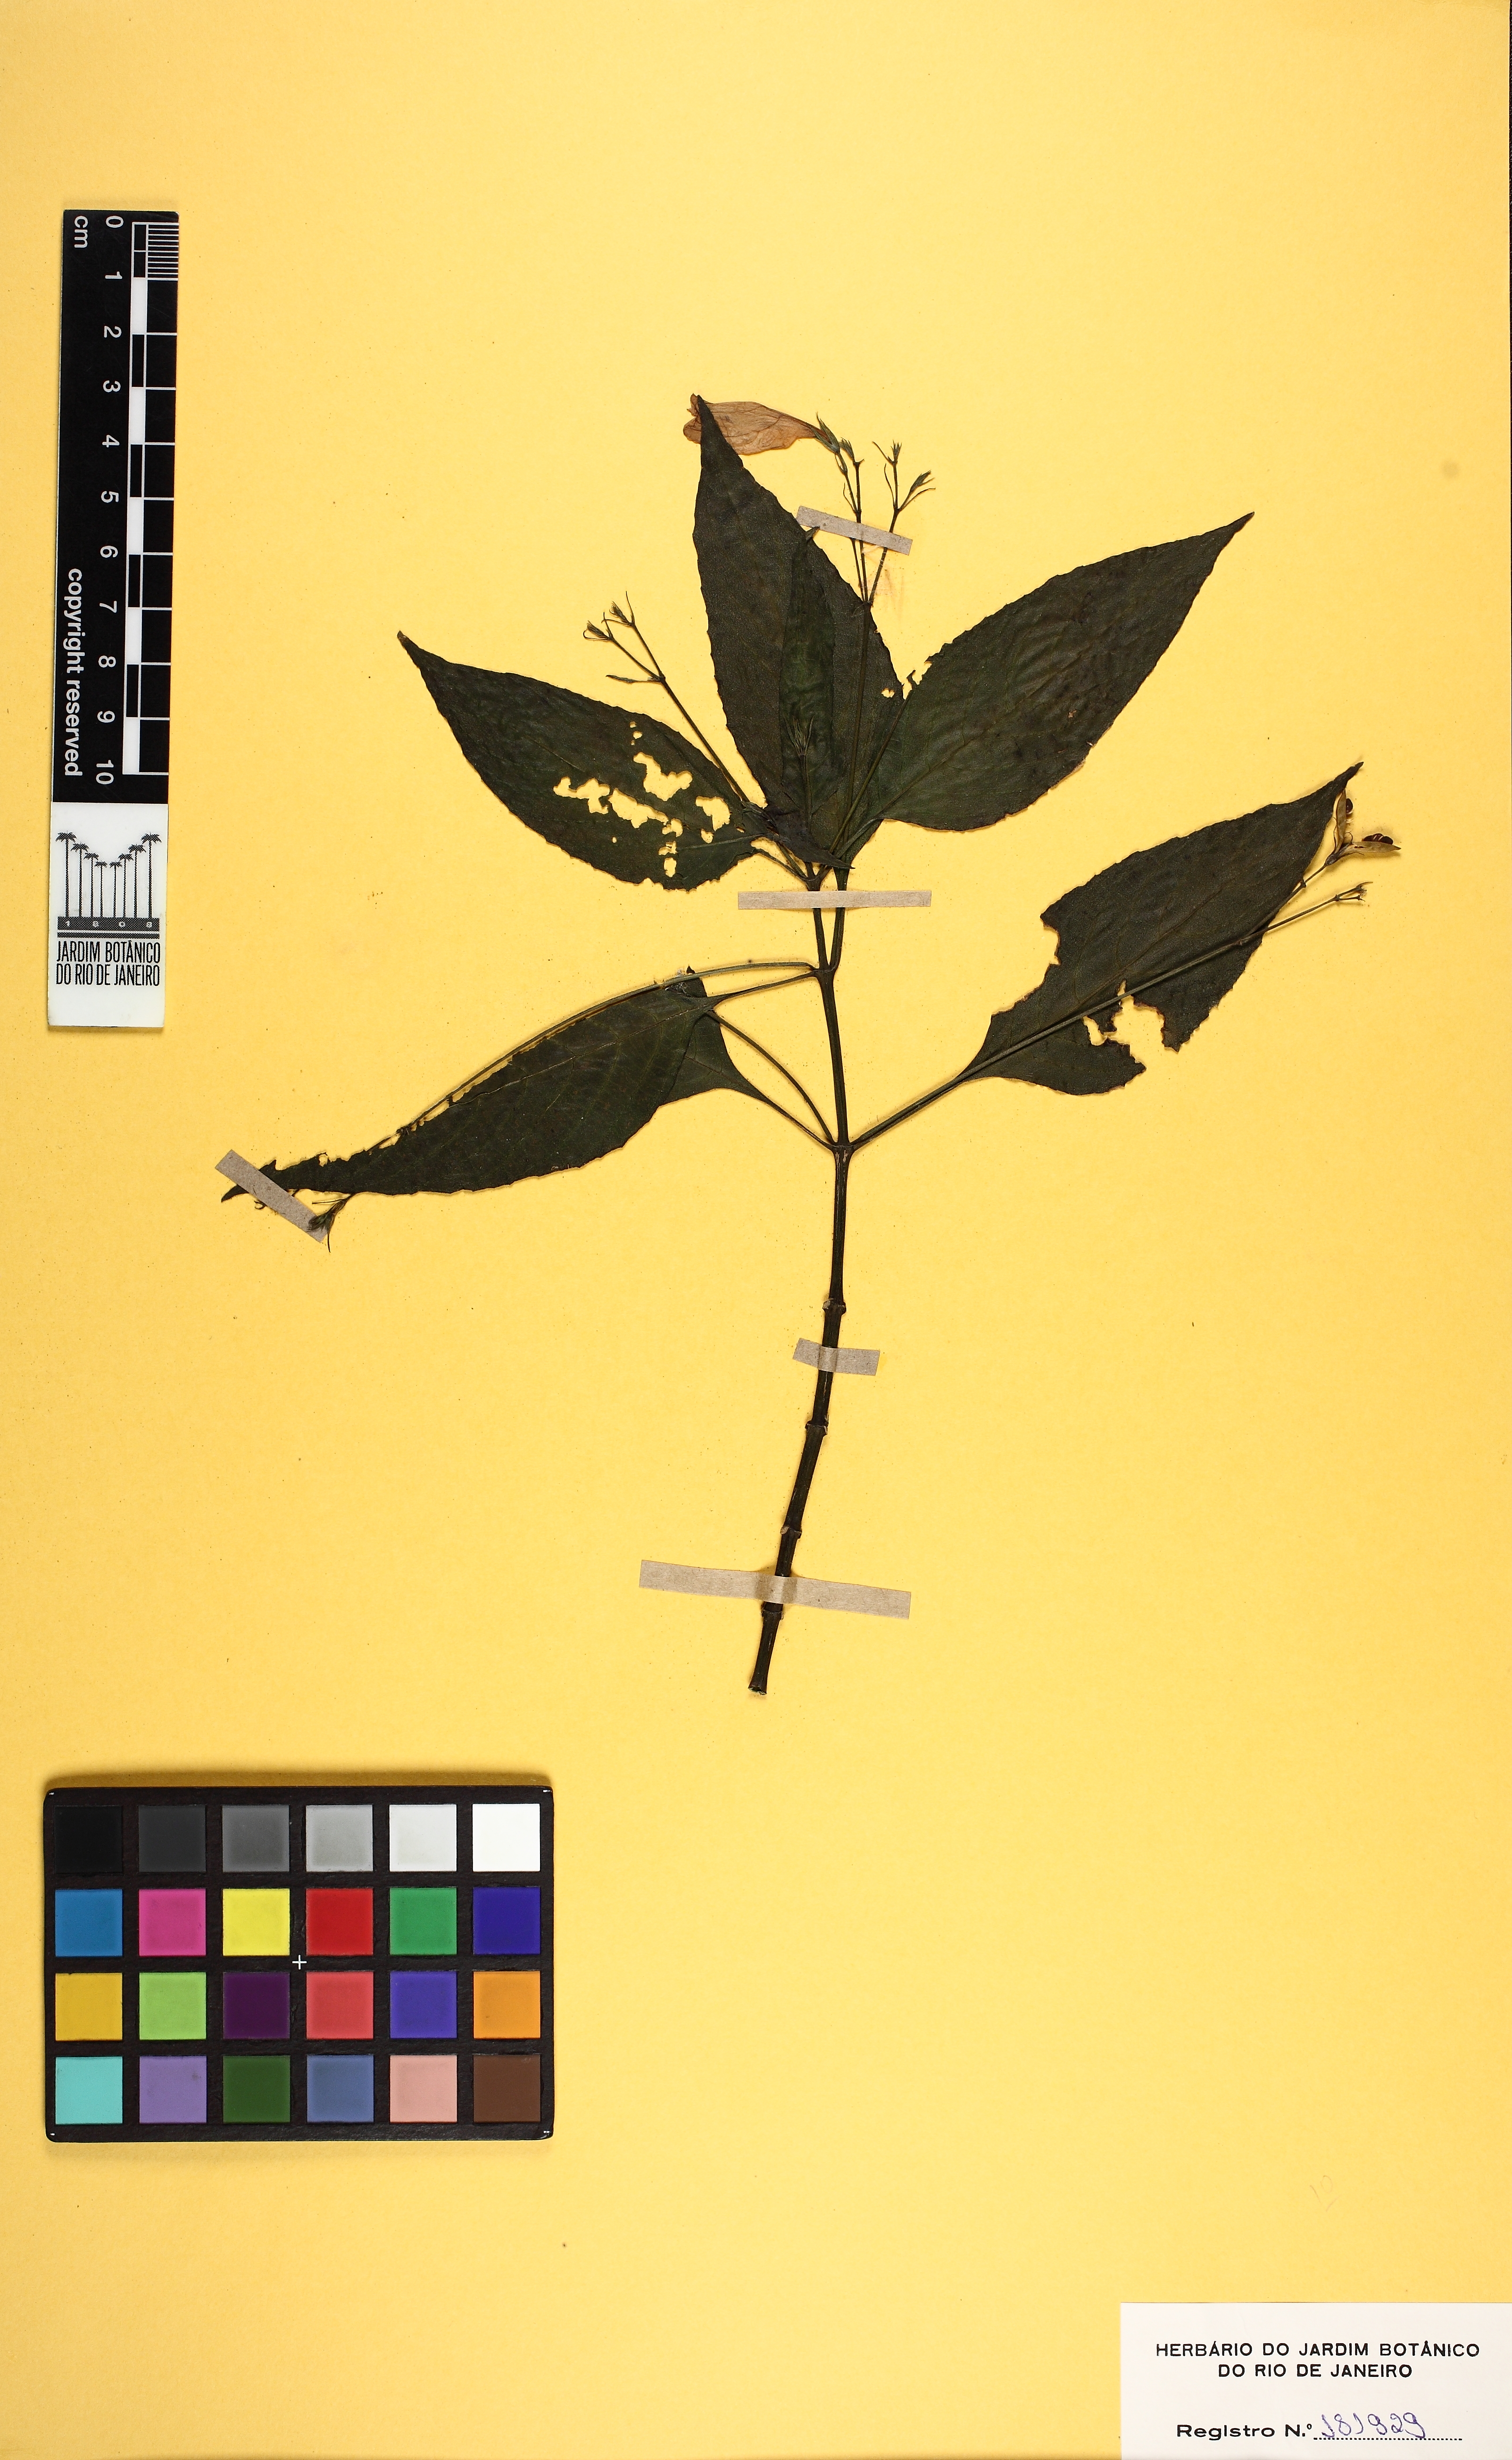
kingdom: Plantae
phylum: Tracheophyta
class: Magnoliopsida
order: Lamiales
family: Acanthaceae
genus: Ruellia
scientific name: Ruellia brevifolia
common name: Tropical wild petunia
